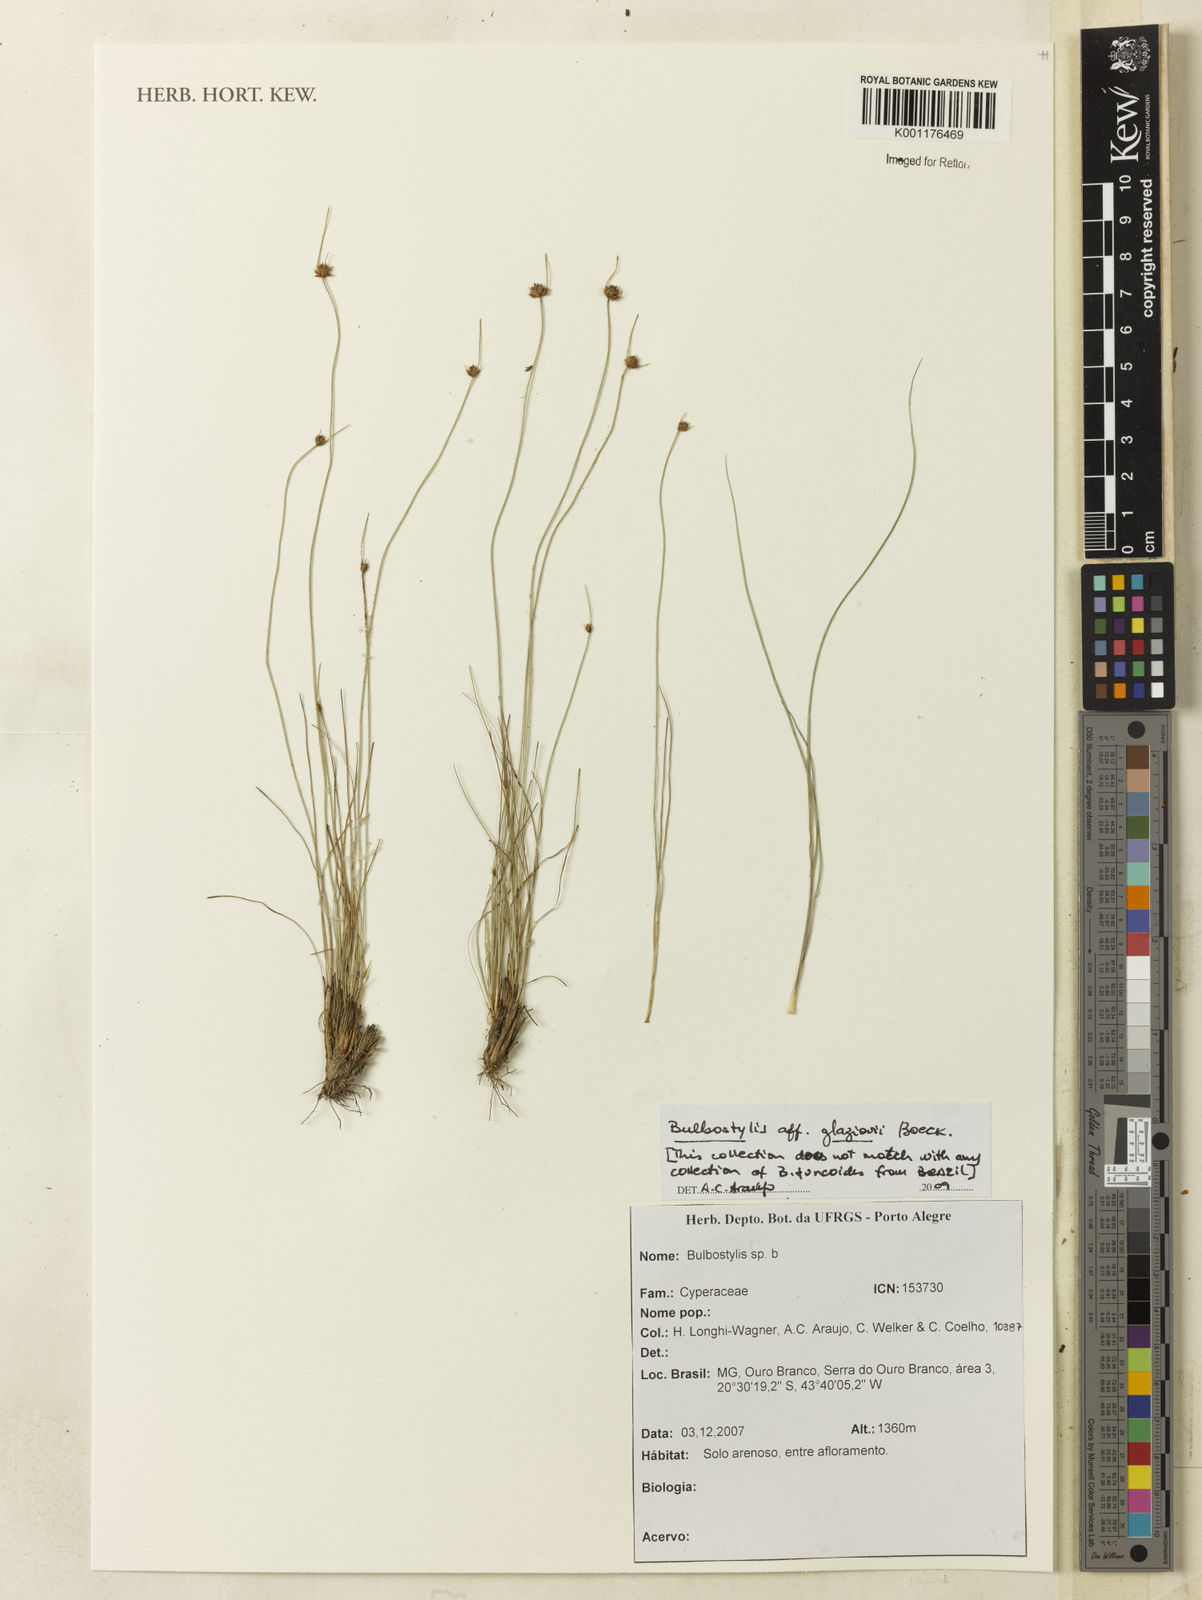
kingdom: Plantae
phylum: Tracheophyta
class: Liliopsida
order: Poales
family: Cyperaceae
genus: Bulbostylis
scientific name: Bulbostylis juncoides
